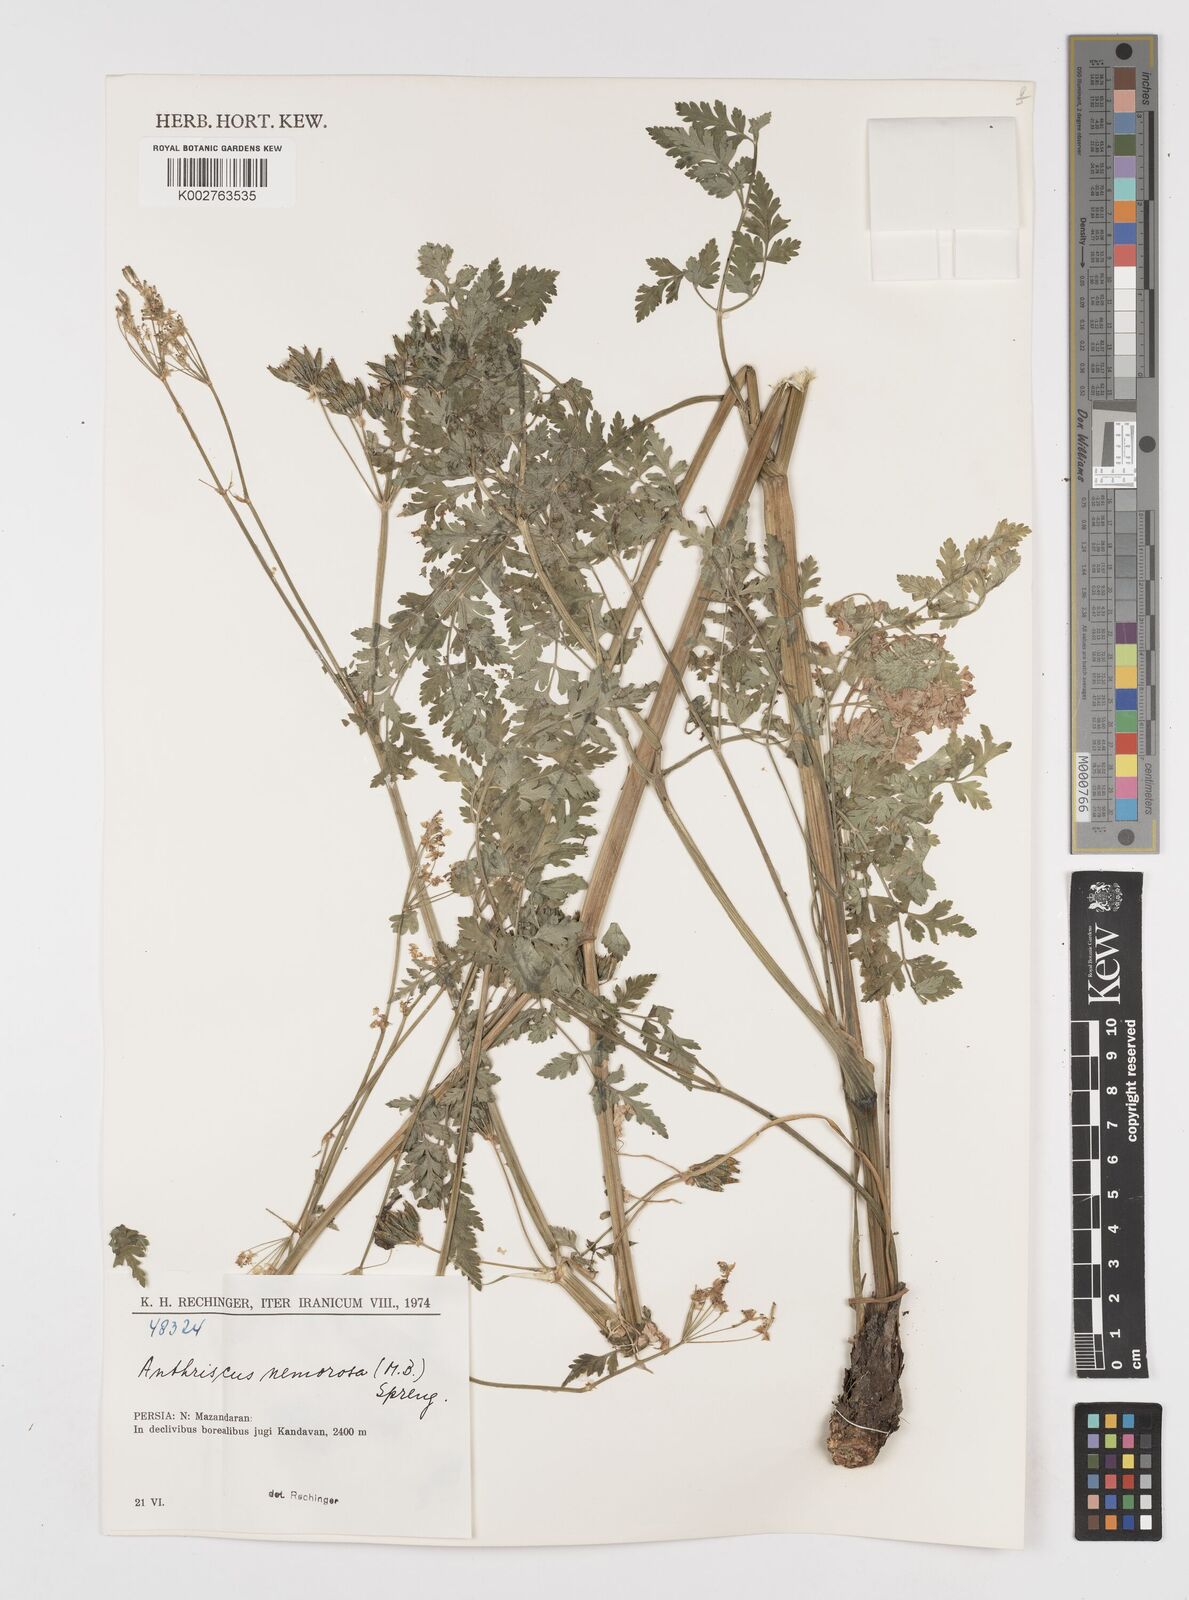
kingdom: Plantae
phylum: Tracheophyta
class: Magnoliopsida
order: Apiales
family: Apiaceae
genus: Anthriscus
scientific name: Anthriscus sylvestris
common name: Cow parsley
